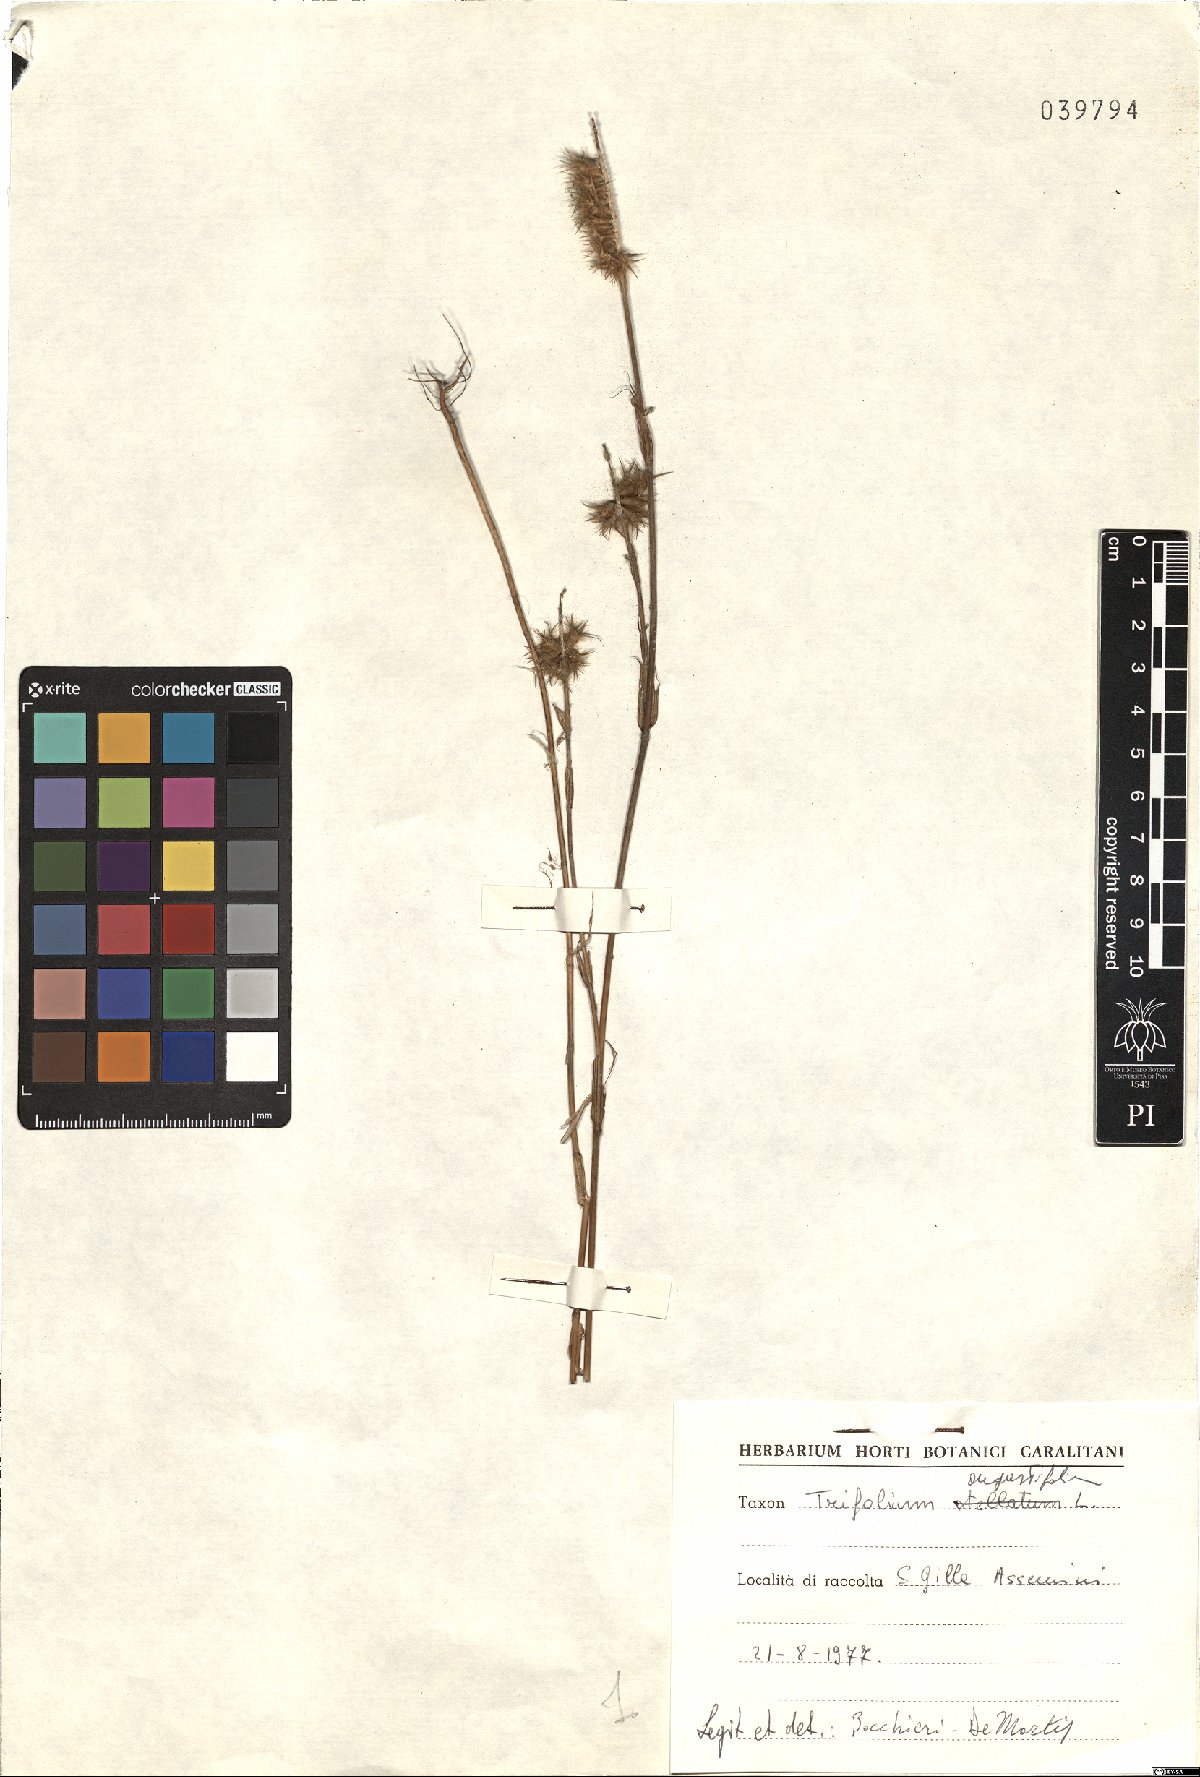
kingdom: Plantae
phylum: Tracheophyta
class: Magnoliopsida
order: Fabales
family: Fabaceae
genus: Trifolium
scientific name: Trifolium angustifolium
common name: Narrow clover
